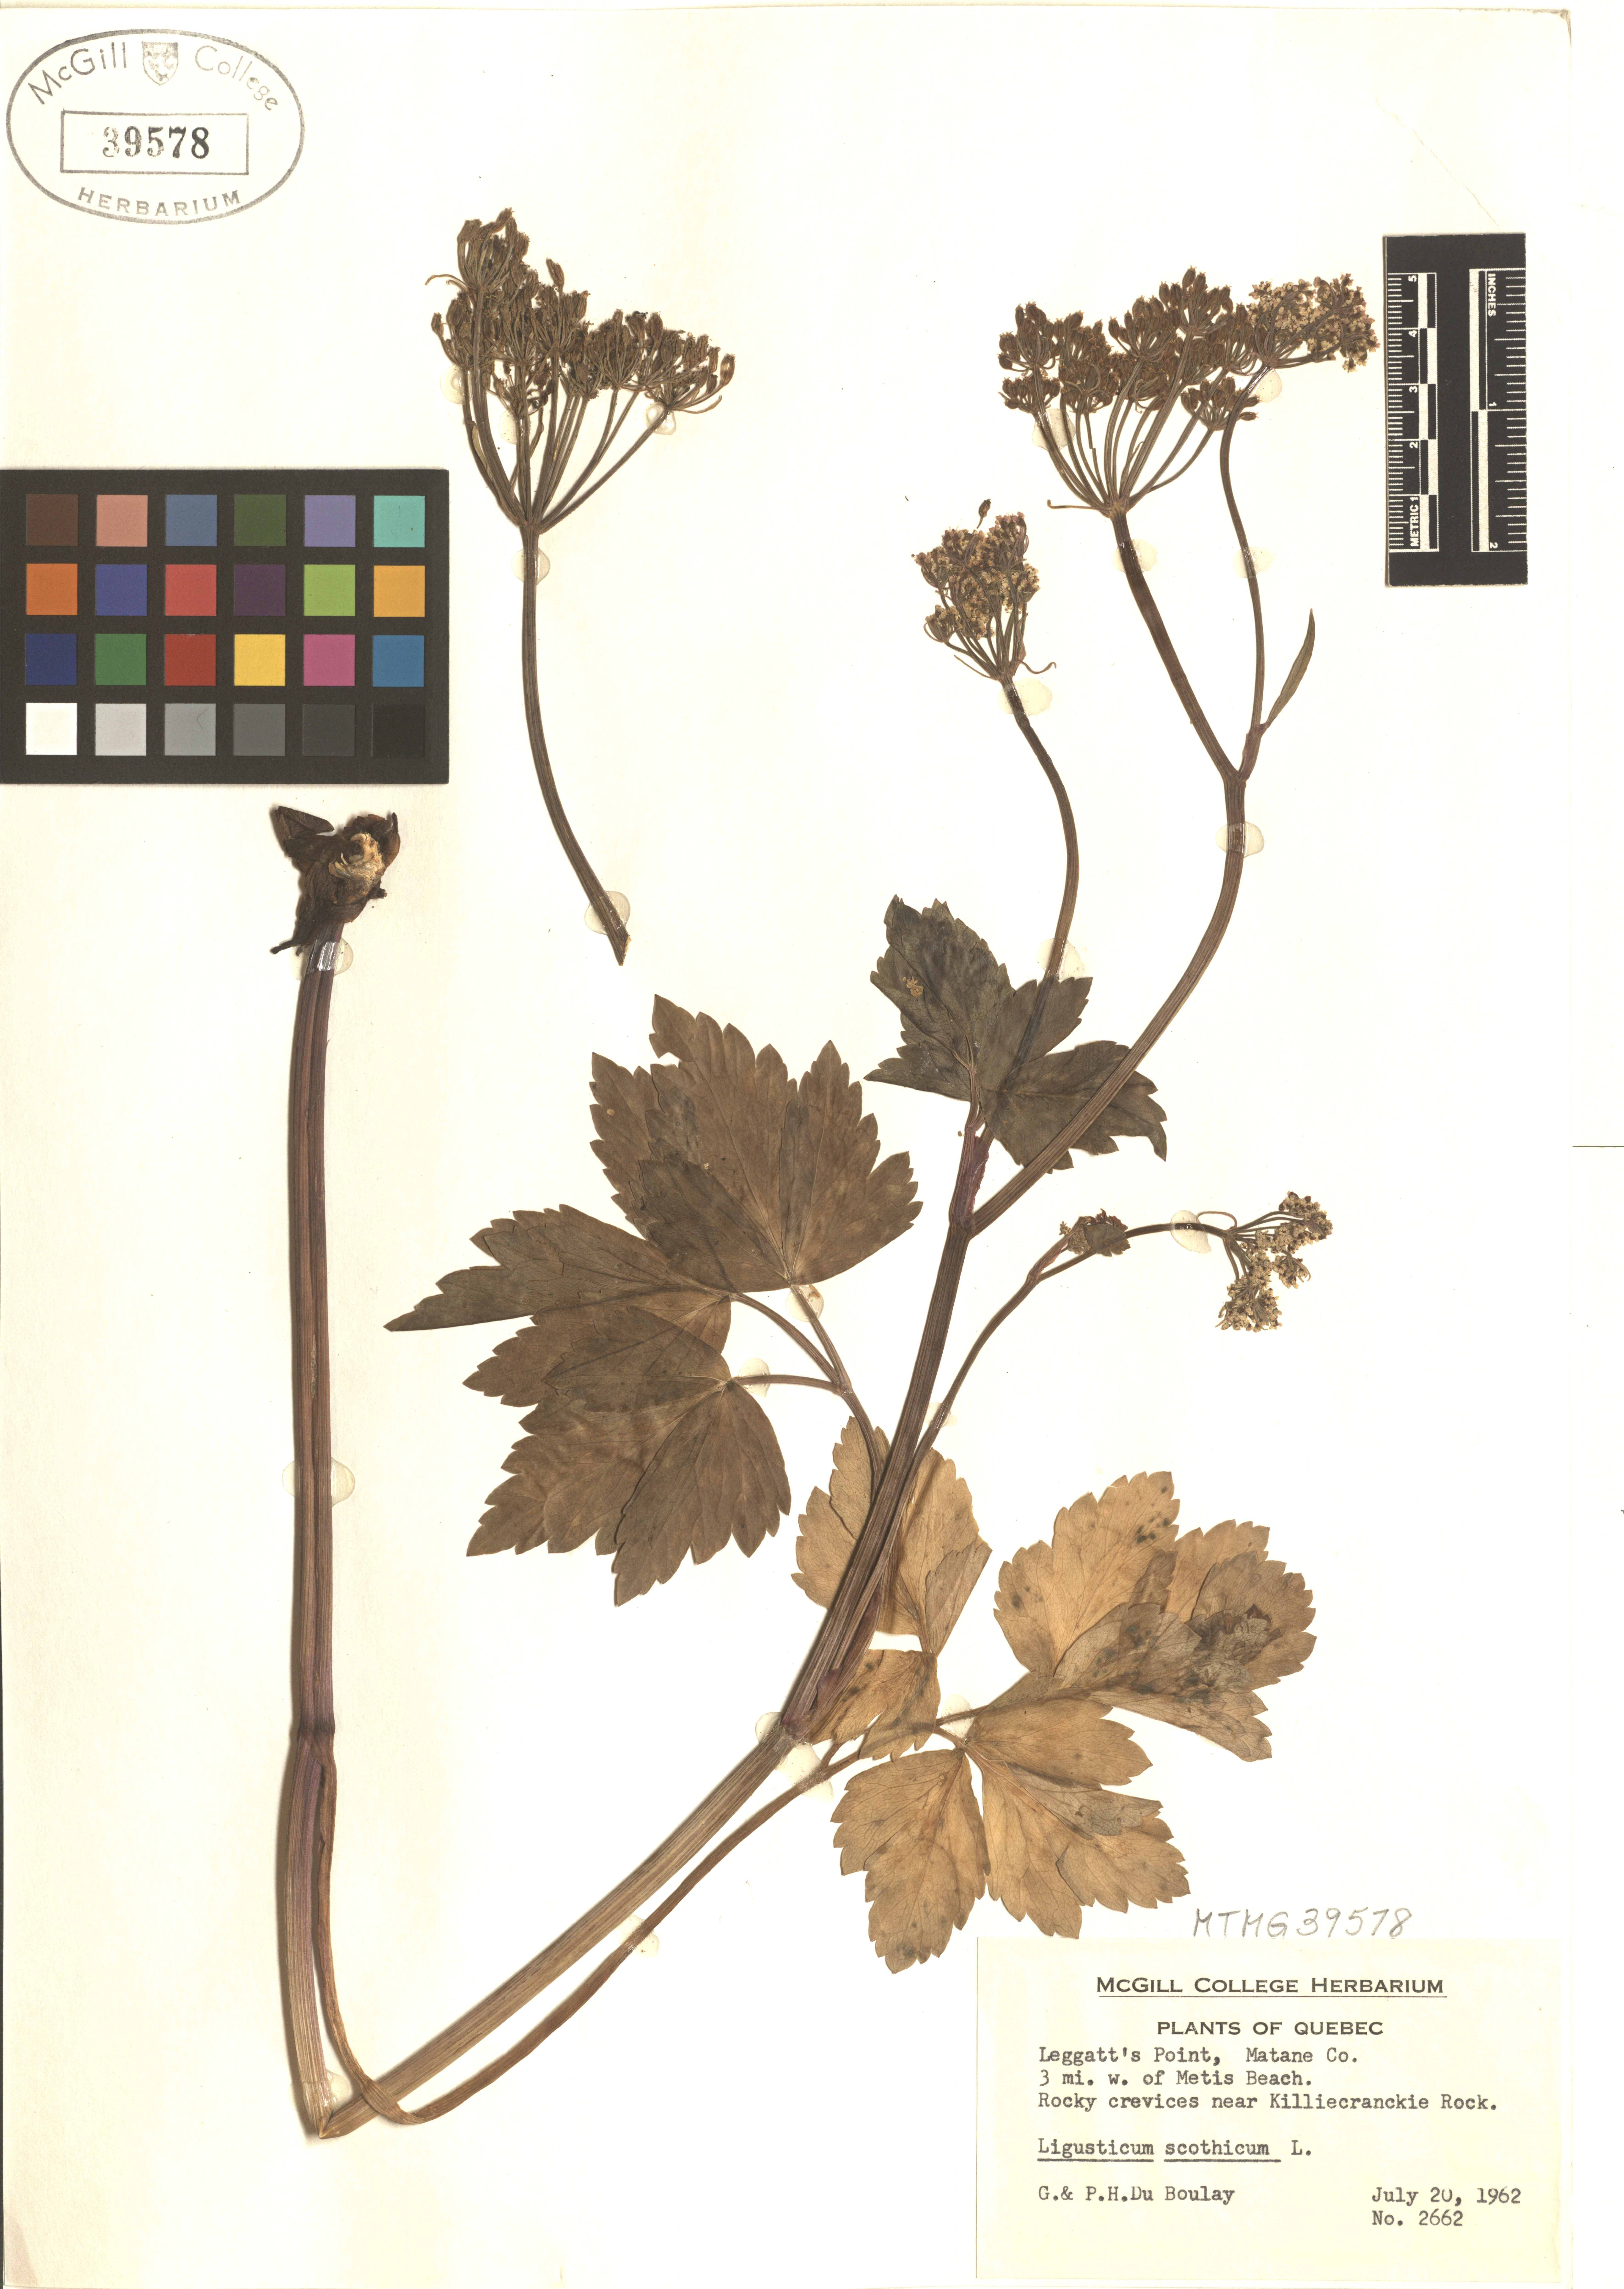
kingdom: Plantae
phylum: Tracheophyta
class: Magnoliopsida
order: Apiales
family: Apiaceae
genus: Ligusticum
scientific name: Ligusticum scoticum
